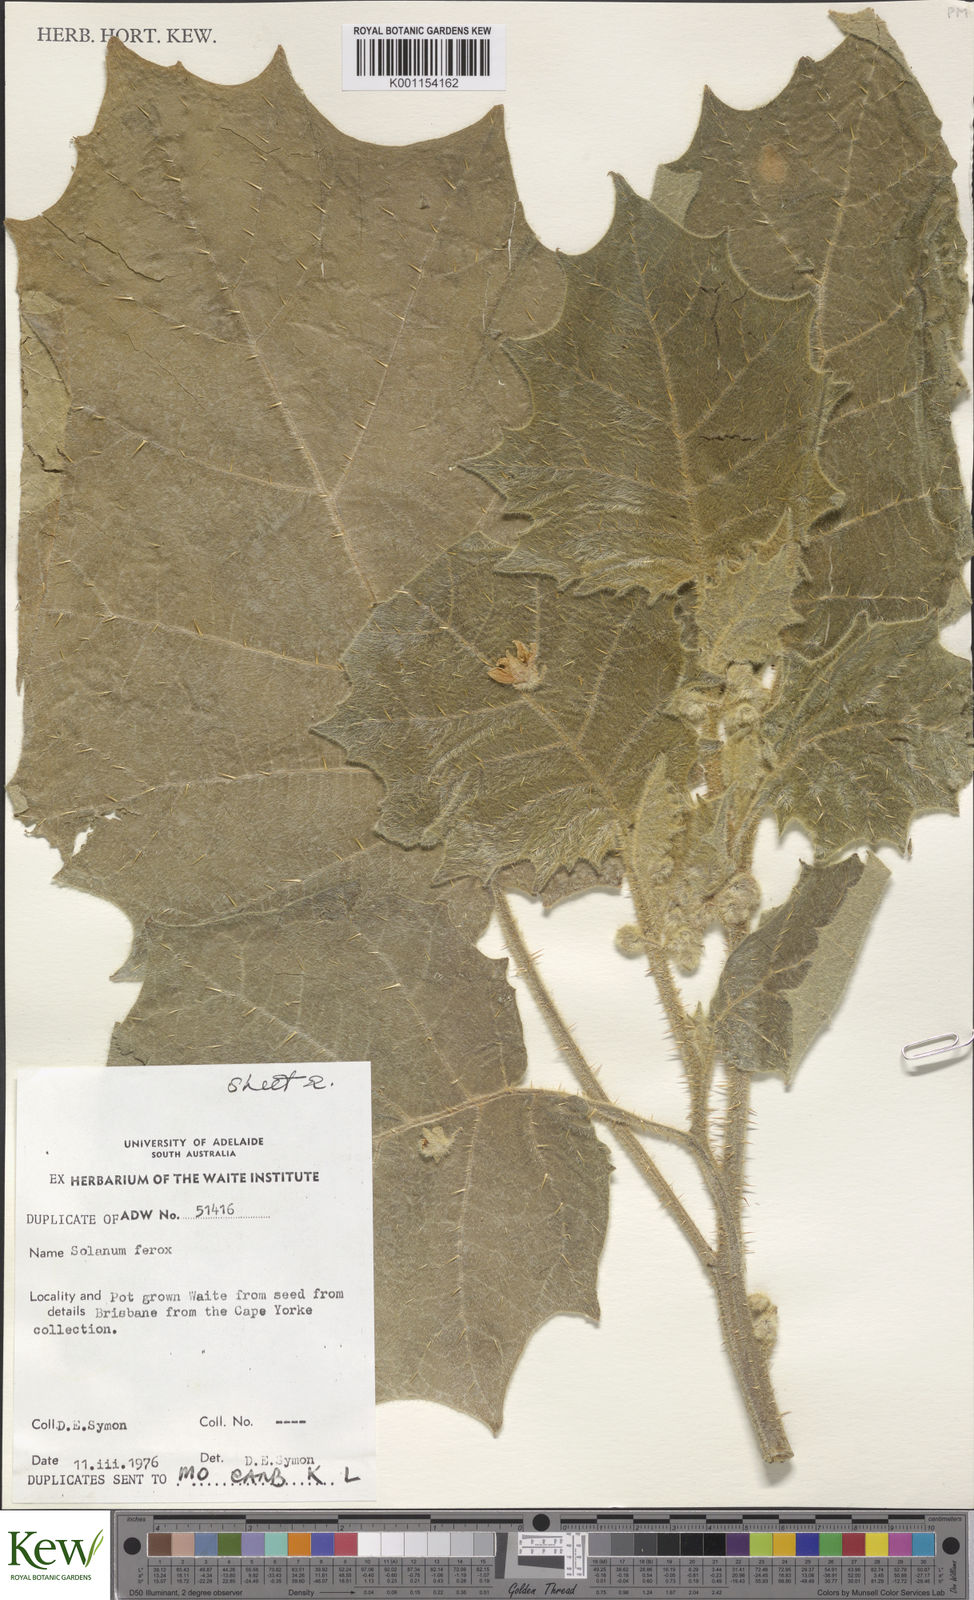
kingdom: Plantae
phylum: Tracheophyta
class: Magnoliopsida
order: Solanales
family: Solanaceae
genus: Solanum
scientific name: Solanum
